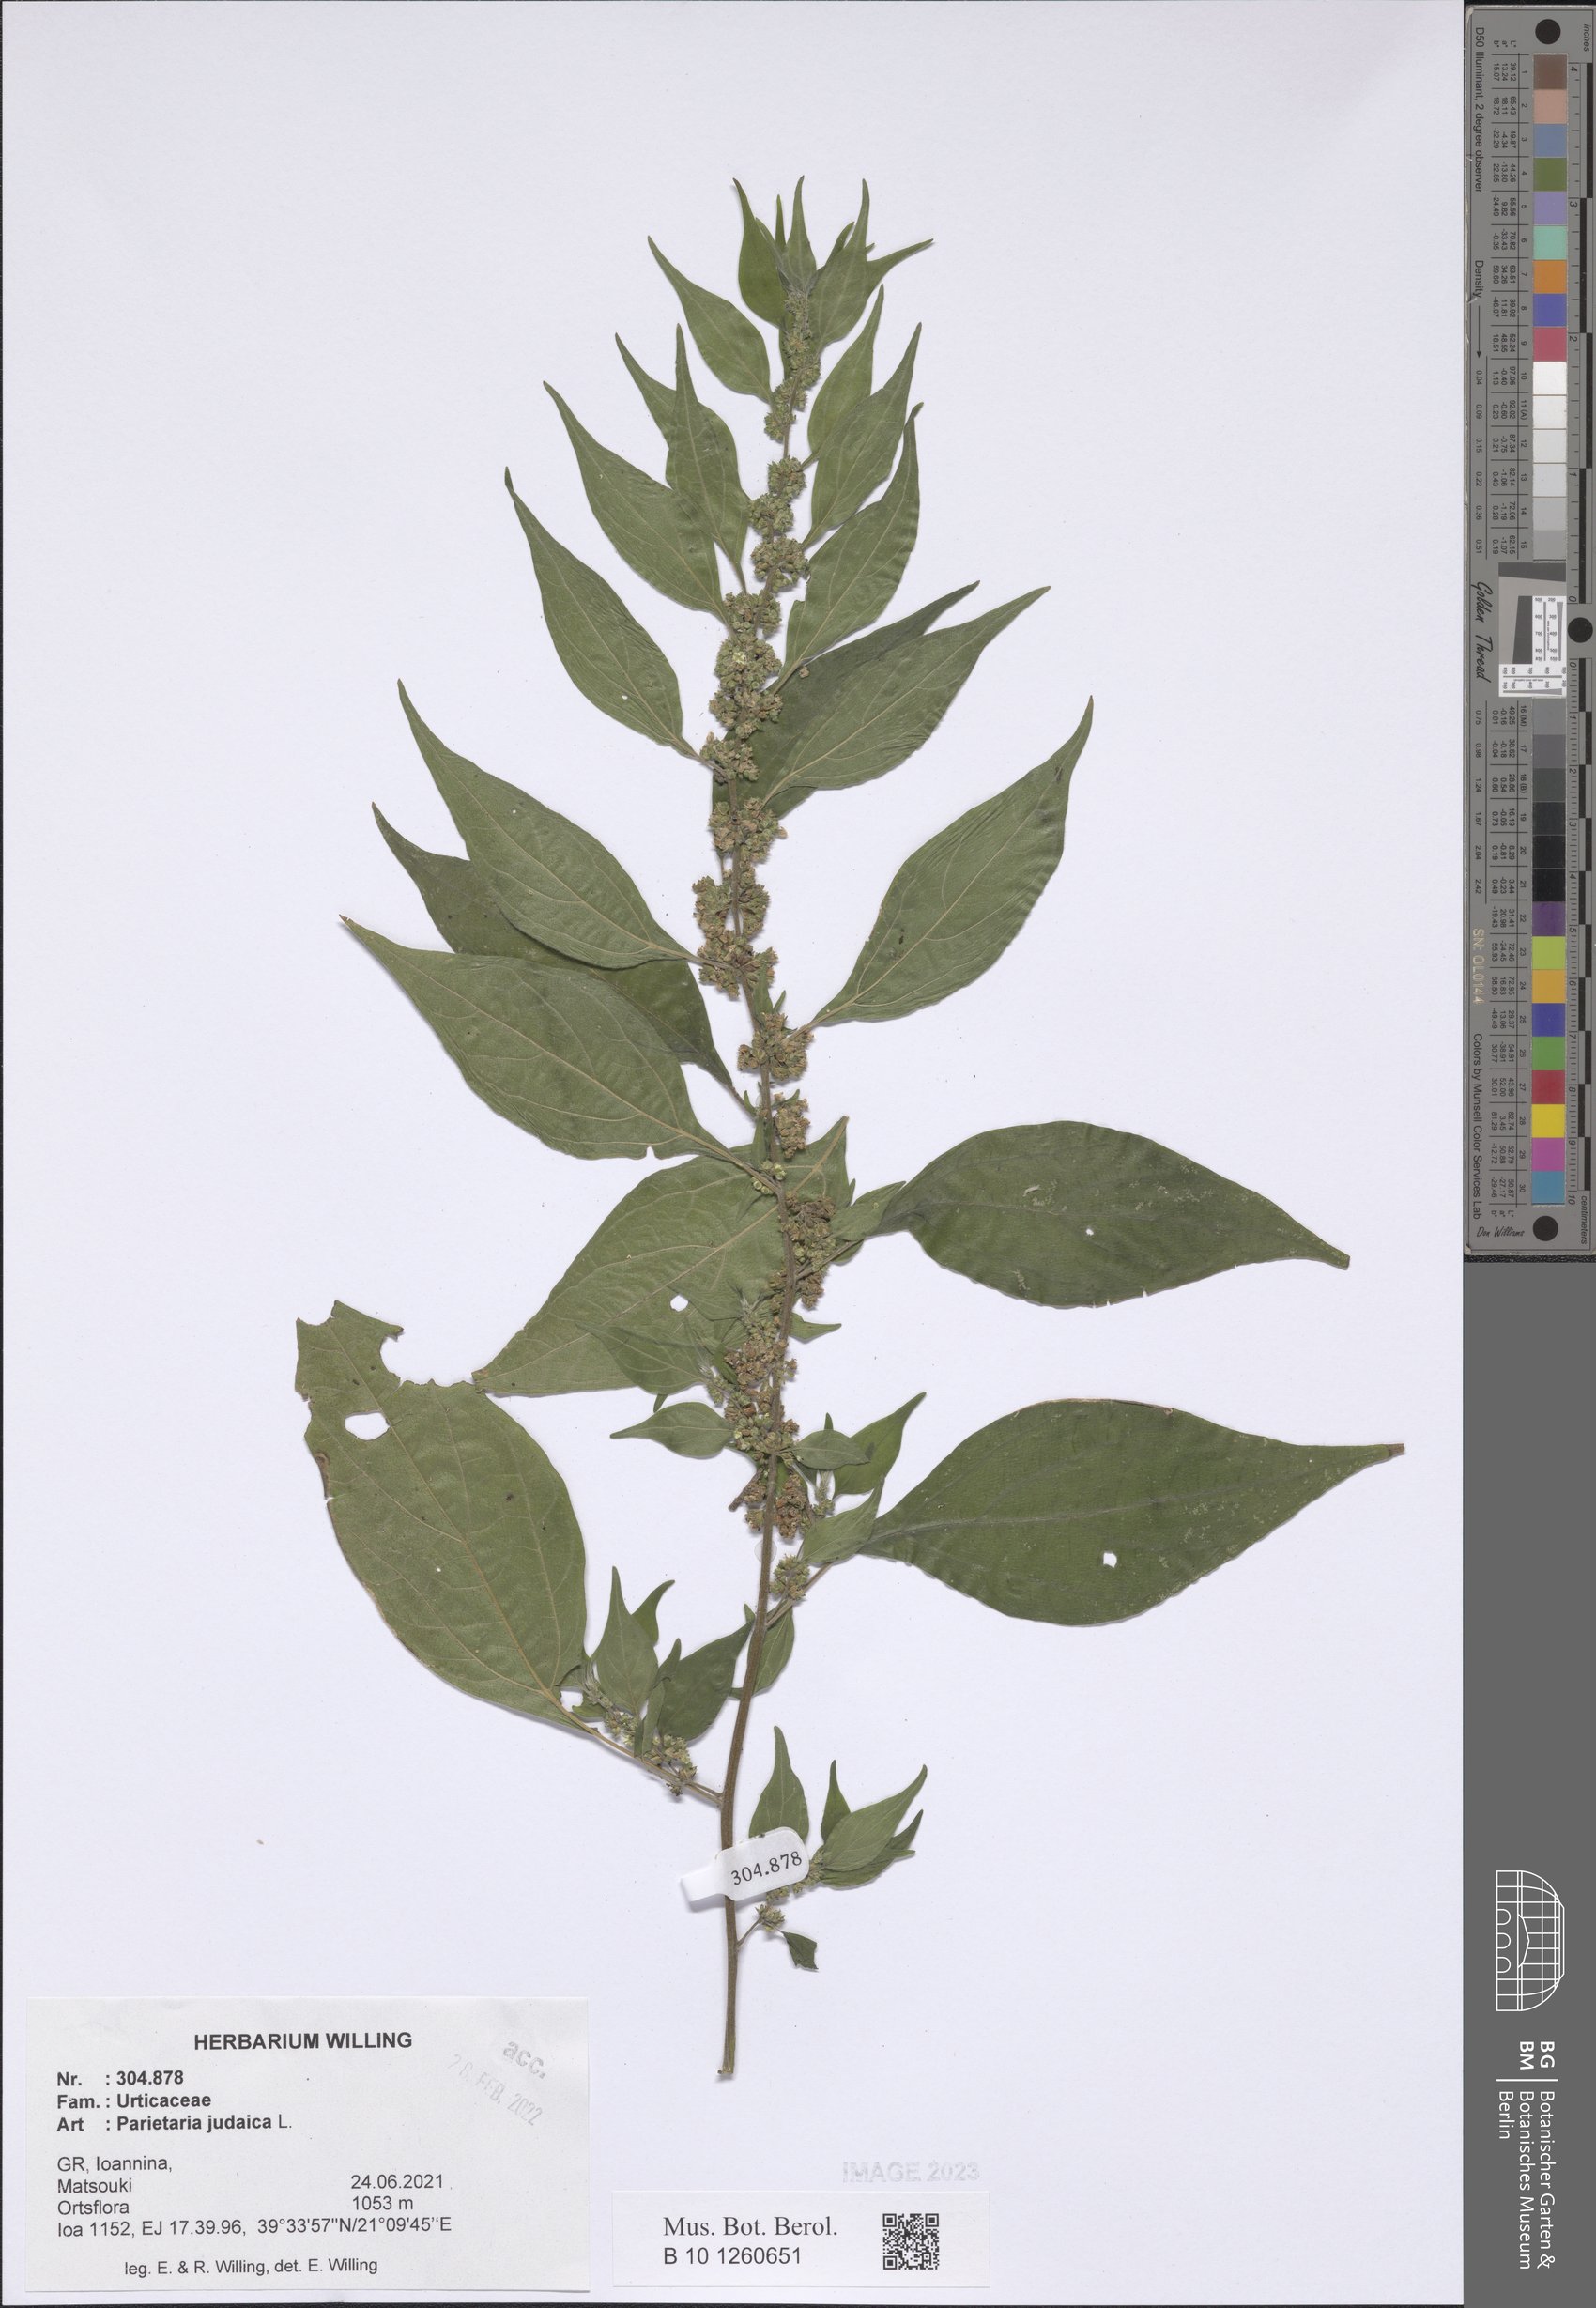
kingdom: Plantae
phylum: Tracheophyta
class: Magnoliopsida
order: Rosales
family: Urticaceae
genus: Parietaria
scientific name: Parietaria judaica
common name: Pellitory-of-the-wall
